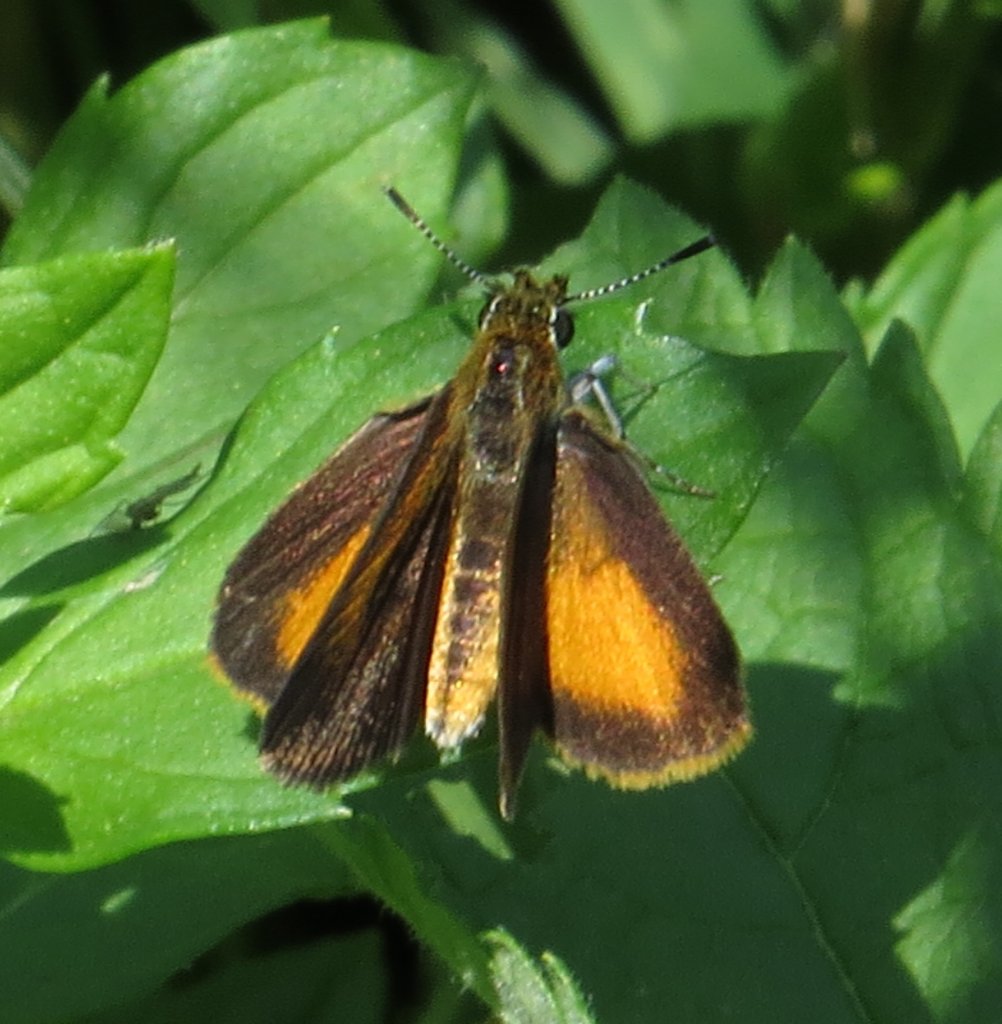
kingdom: Animalia
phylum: Arthropoda
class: Insecta
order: Lepidoptera
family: Hesperiidae
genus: Ancyloxypha
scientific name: Ancyloxypha numitor
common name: Least Skipper
